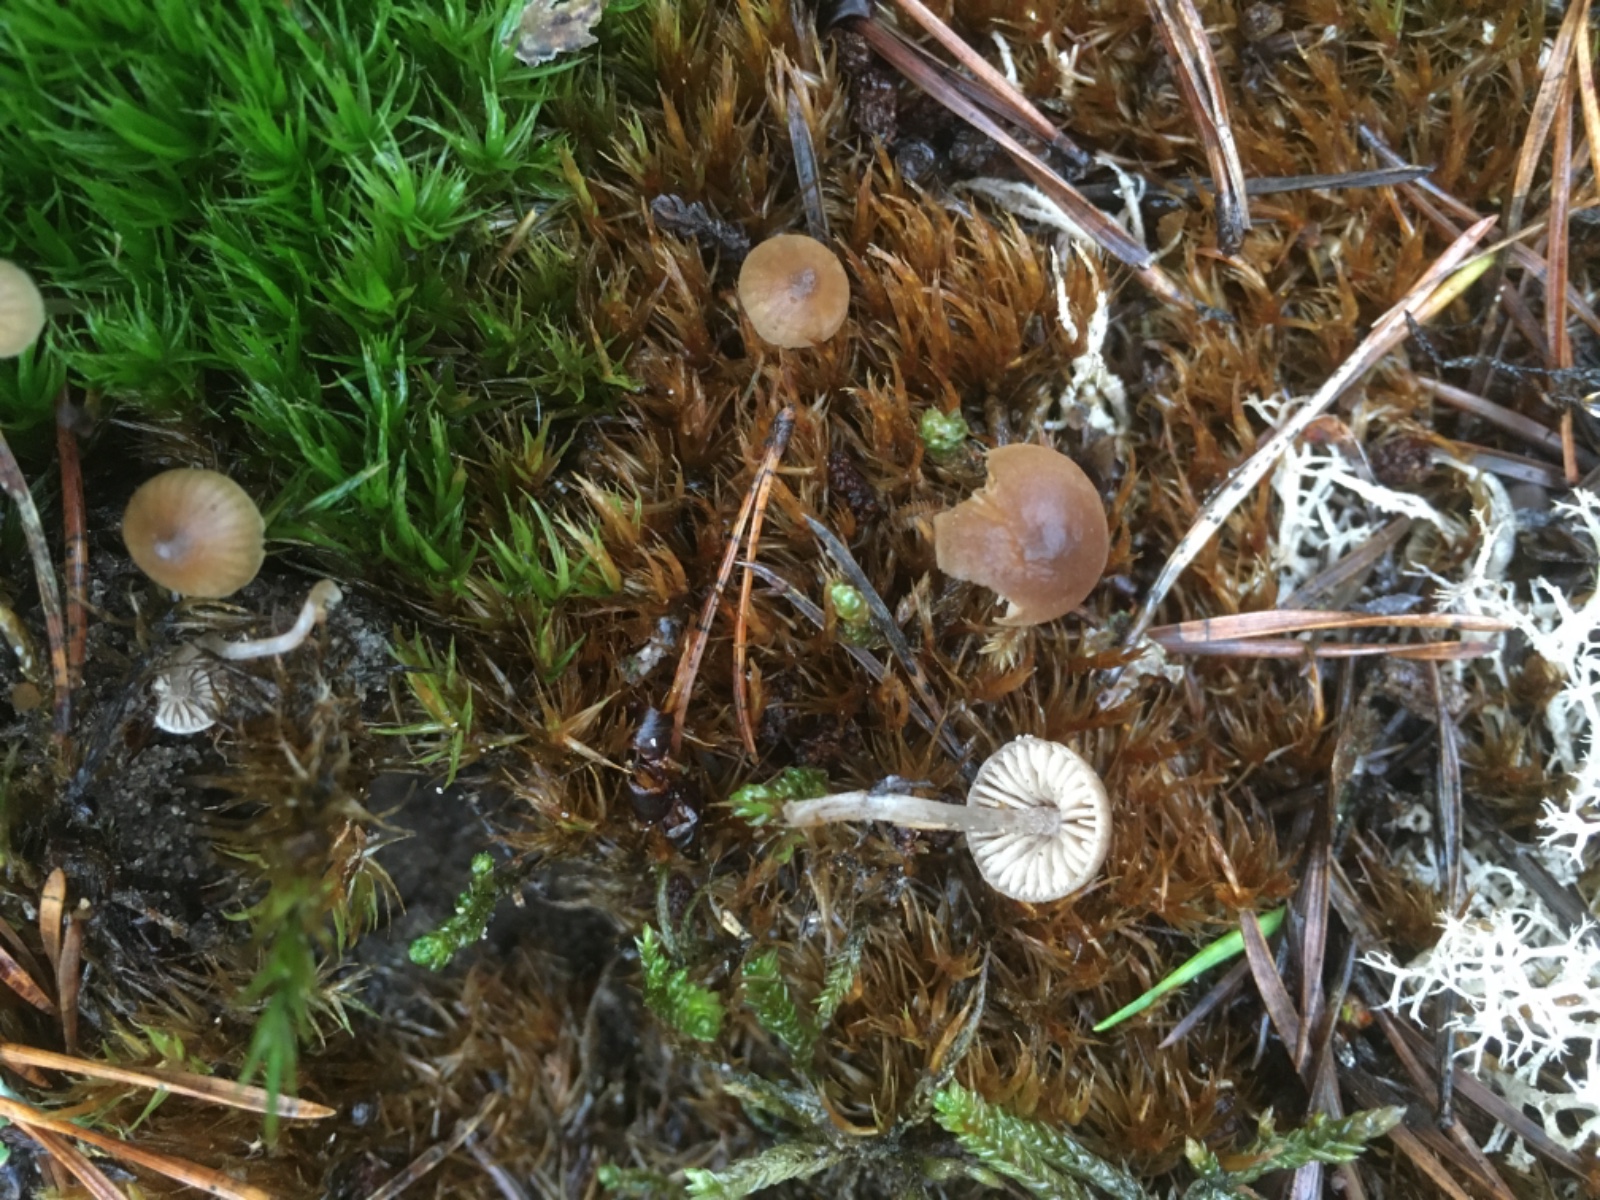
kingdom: Fungi
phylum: Basidiomycota
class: Agaricomycetes
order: Agaricales
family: Lyophyllaceae
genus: Sagaranella
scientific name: Sagaranella tylicolor
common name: kvælstof-gråblad
